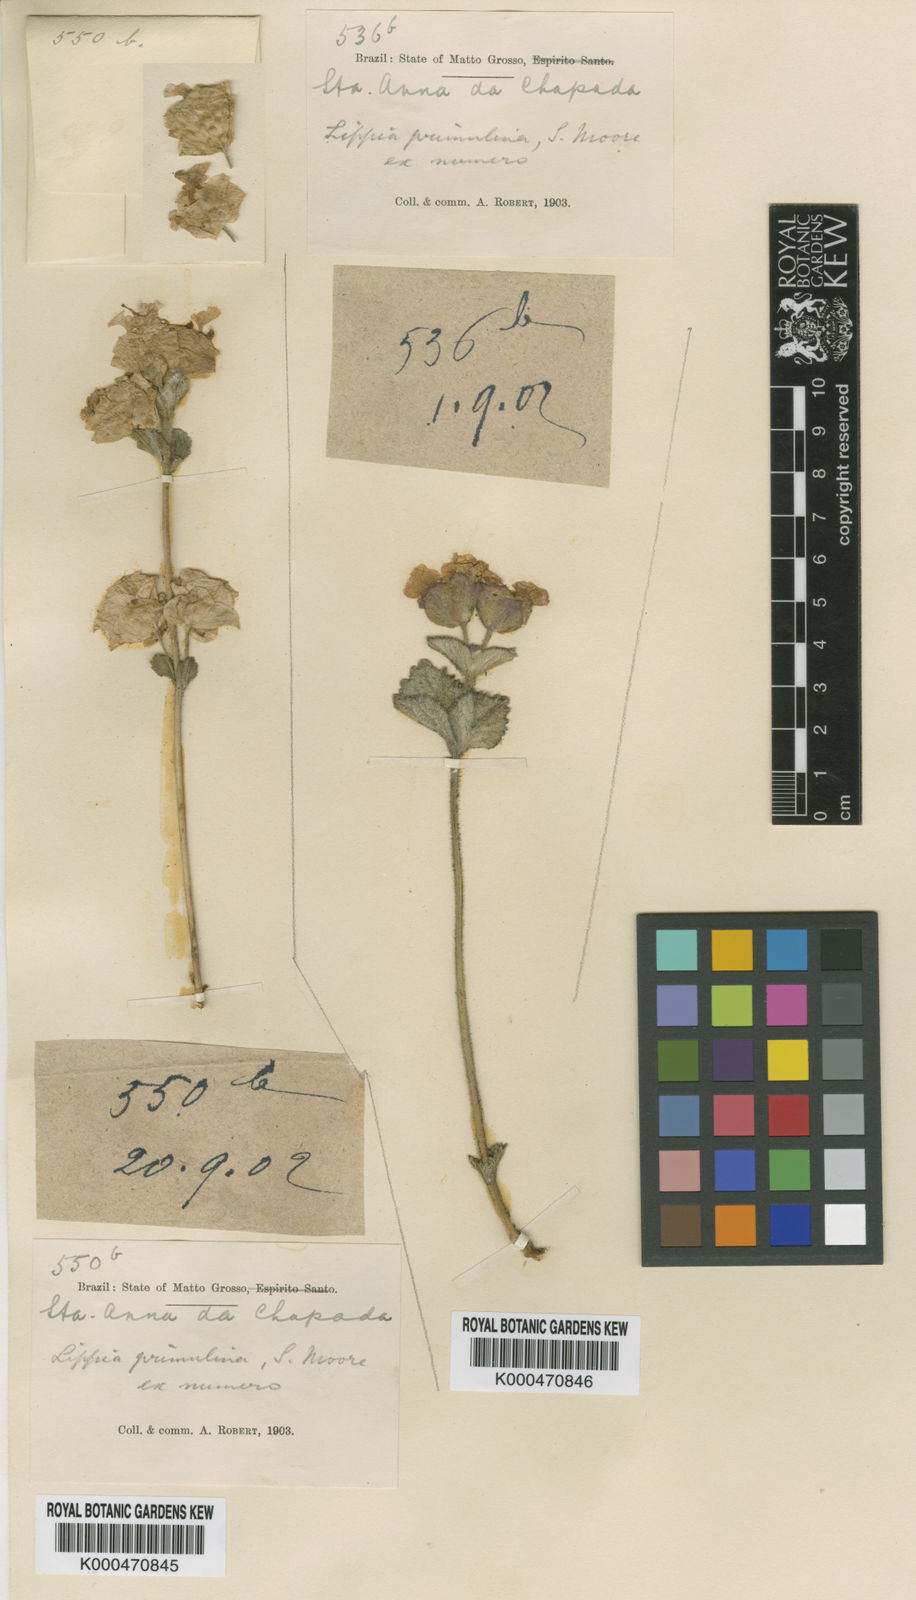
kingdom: Plantae
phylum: Tracheophyta
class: Magnoliopsida
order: Lamiales
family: Verbenaceae
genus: Lippia
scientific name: Lippia primulina
